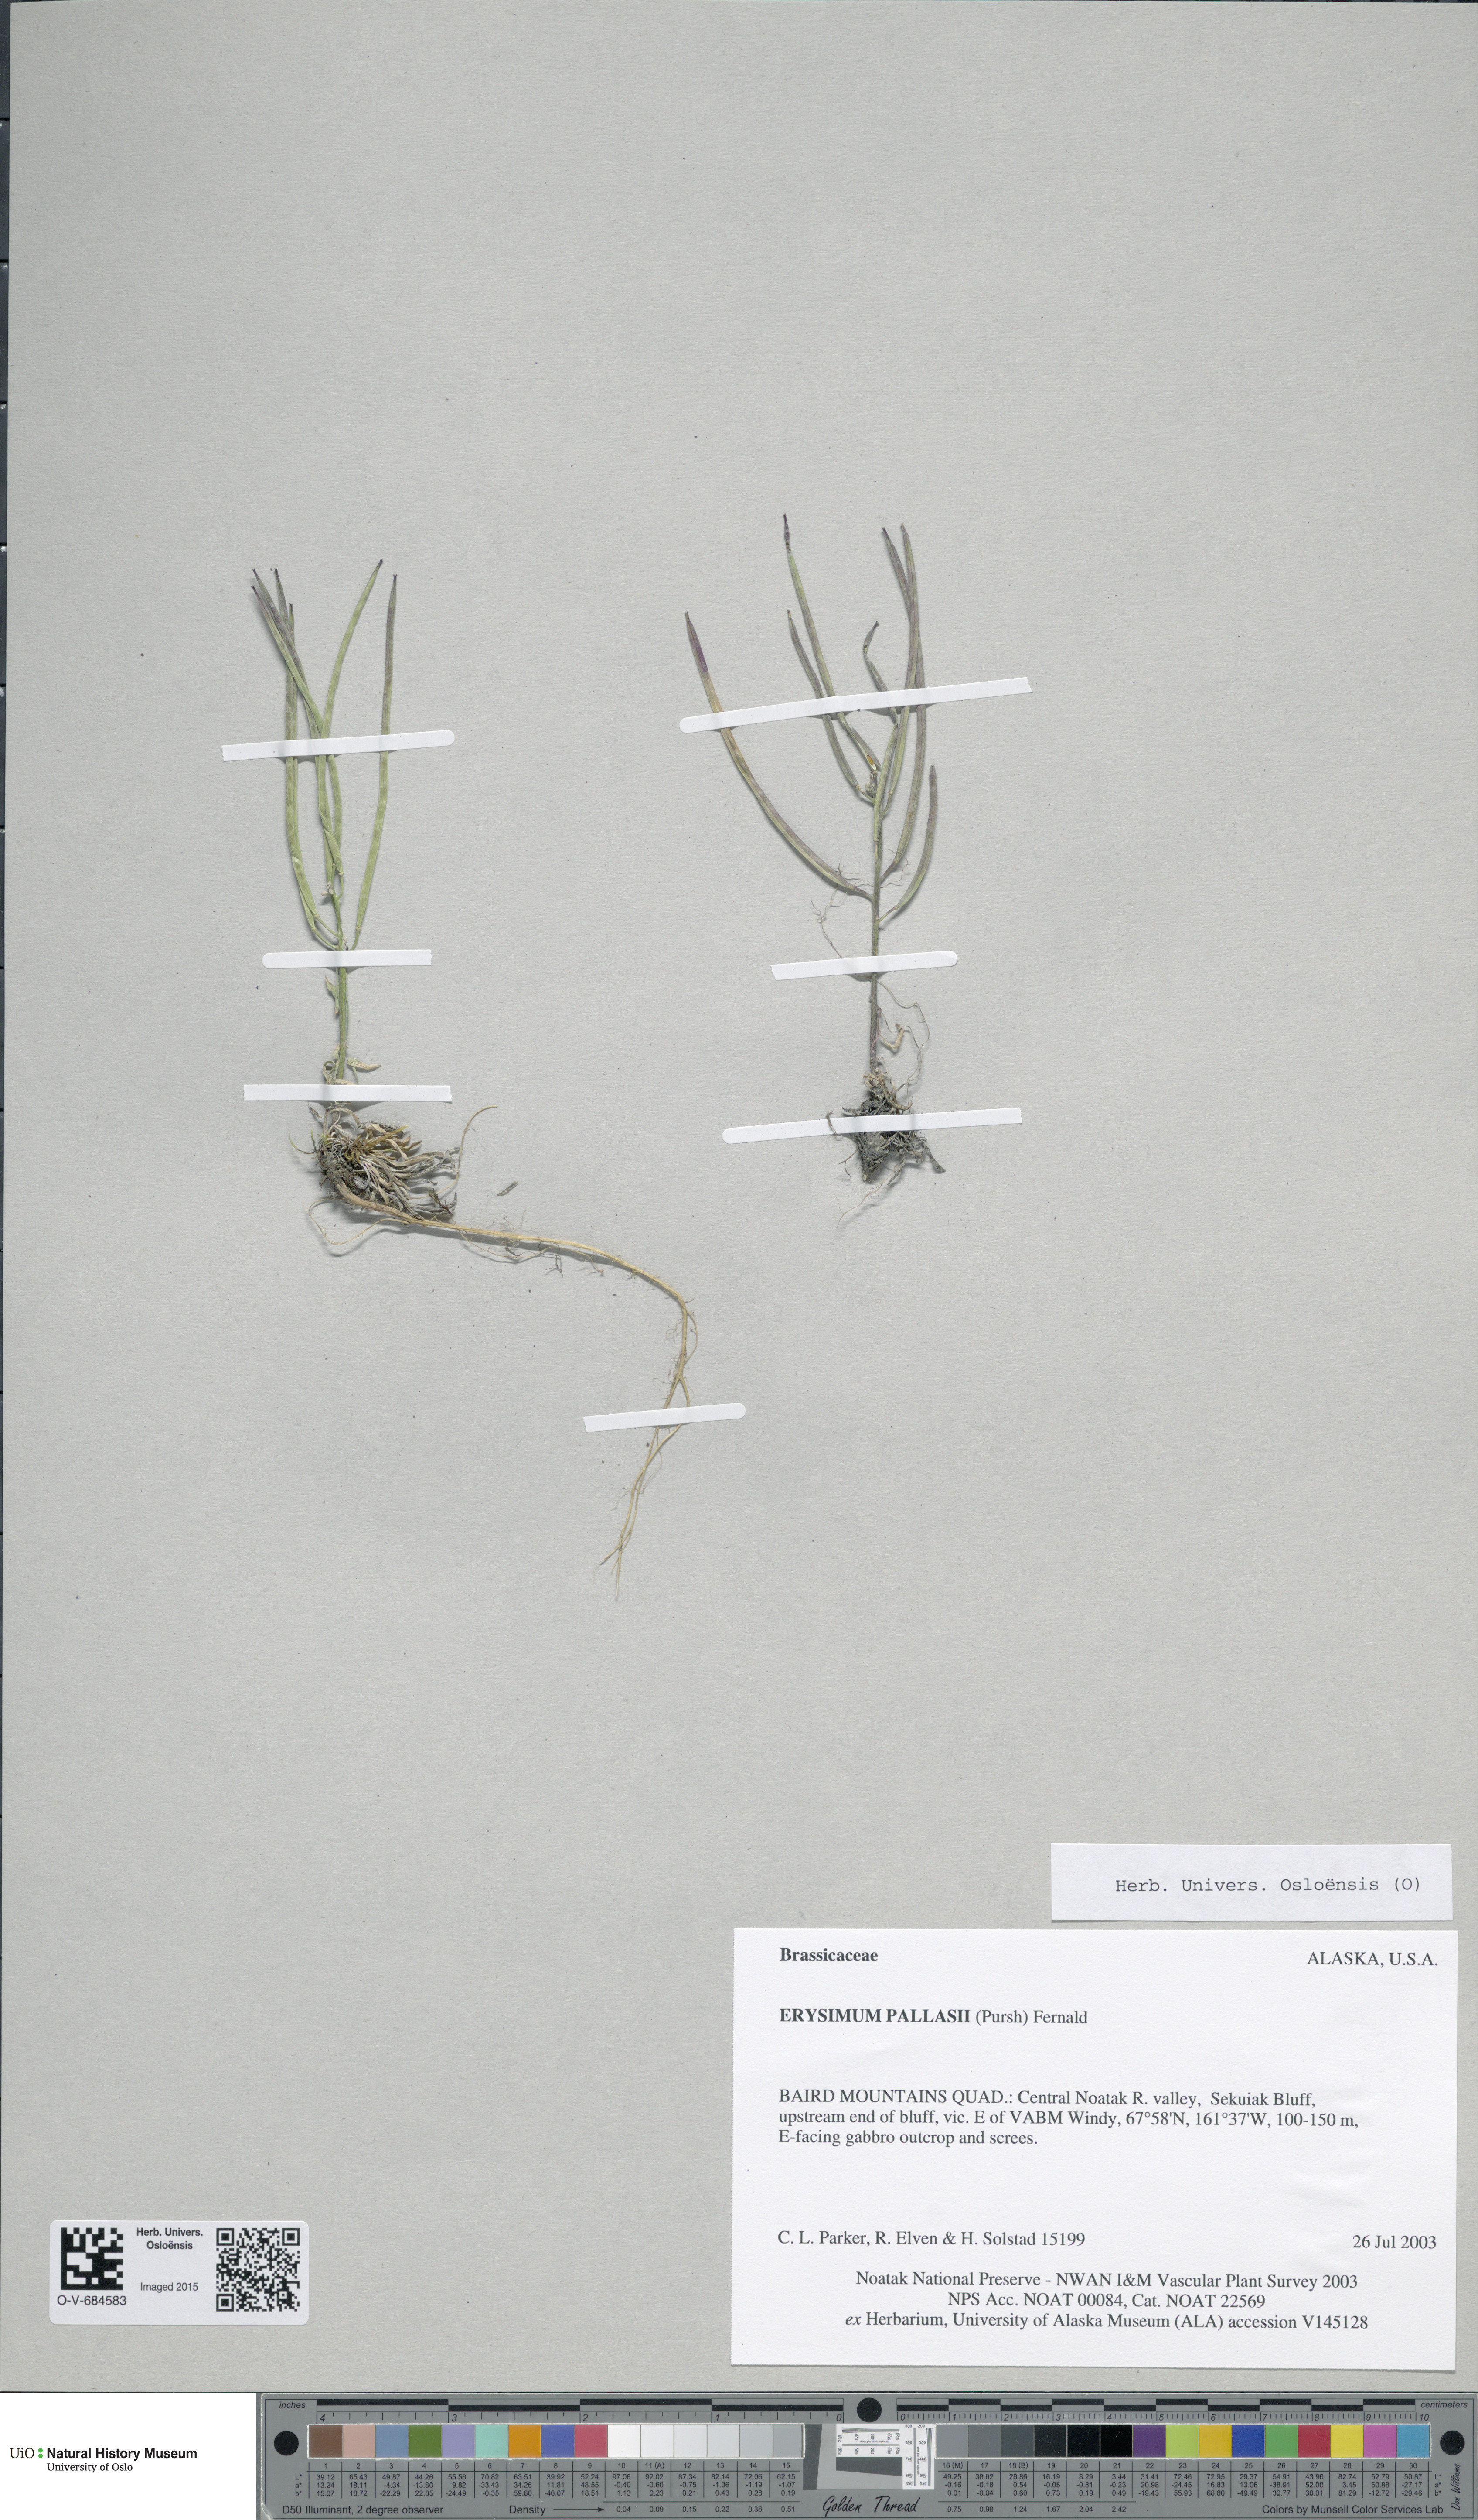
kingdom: Plantae
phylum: Tracheophyta
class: Magnoliopsida
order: Brassicales
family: Brassicaceae
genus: Erysimum
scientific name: Erysimum pallasii
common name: Pallas' wallflower
